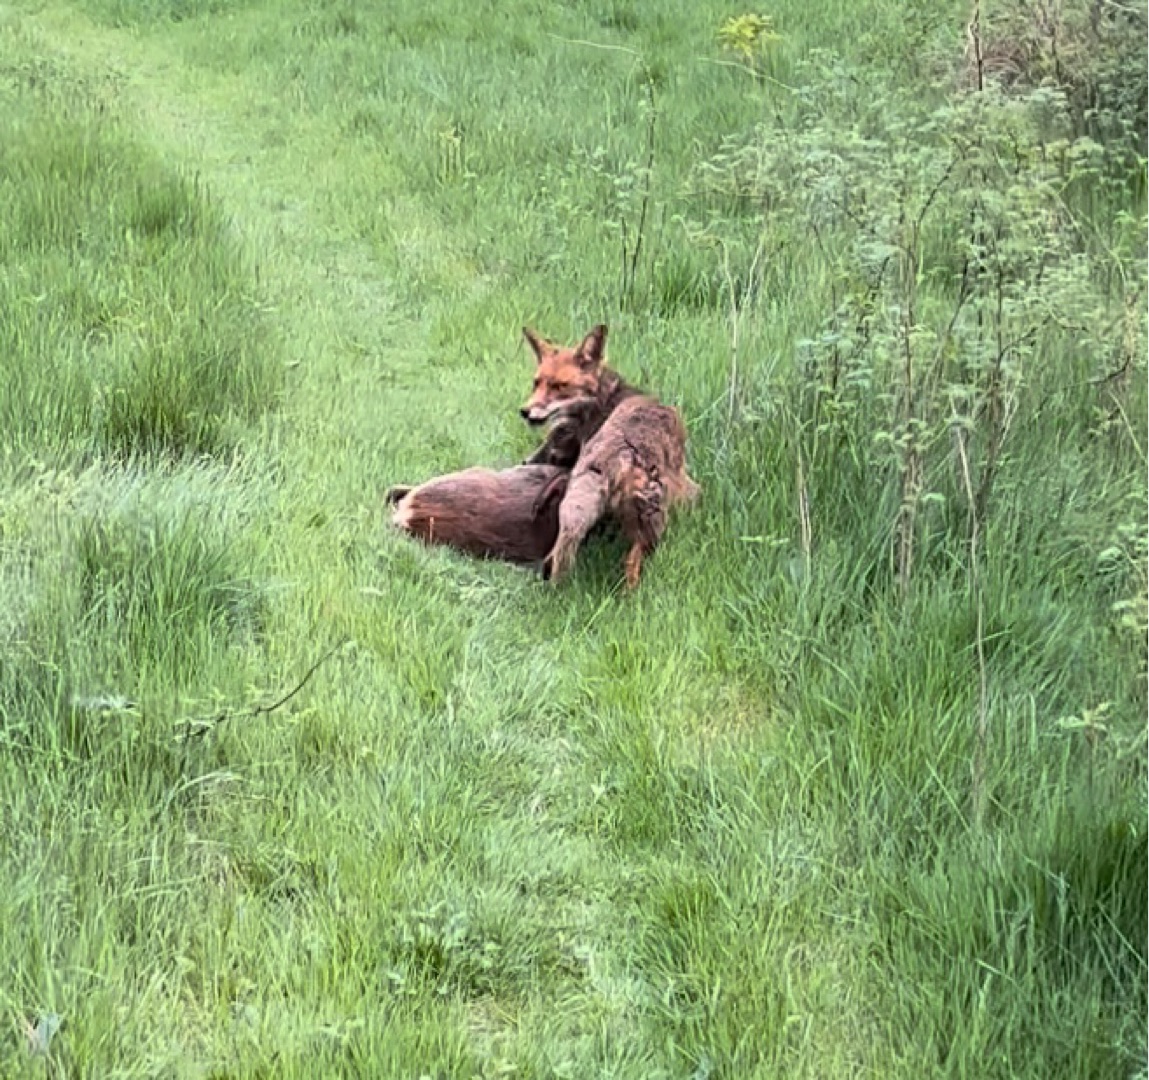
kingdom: Animalia
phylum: Chordata
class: Mammalia
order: Carnivora
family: Canidae
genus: Vulpes
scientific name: Vulpes vulpes
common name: Ræv
